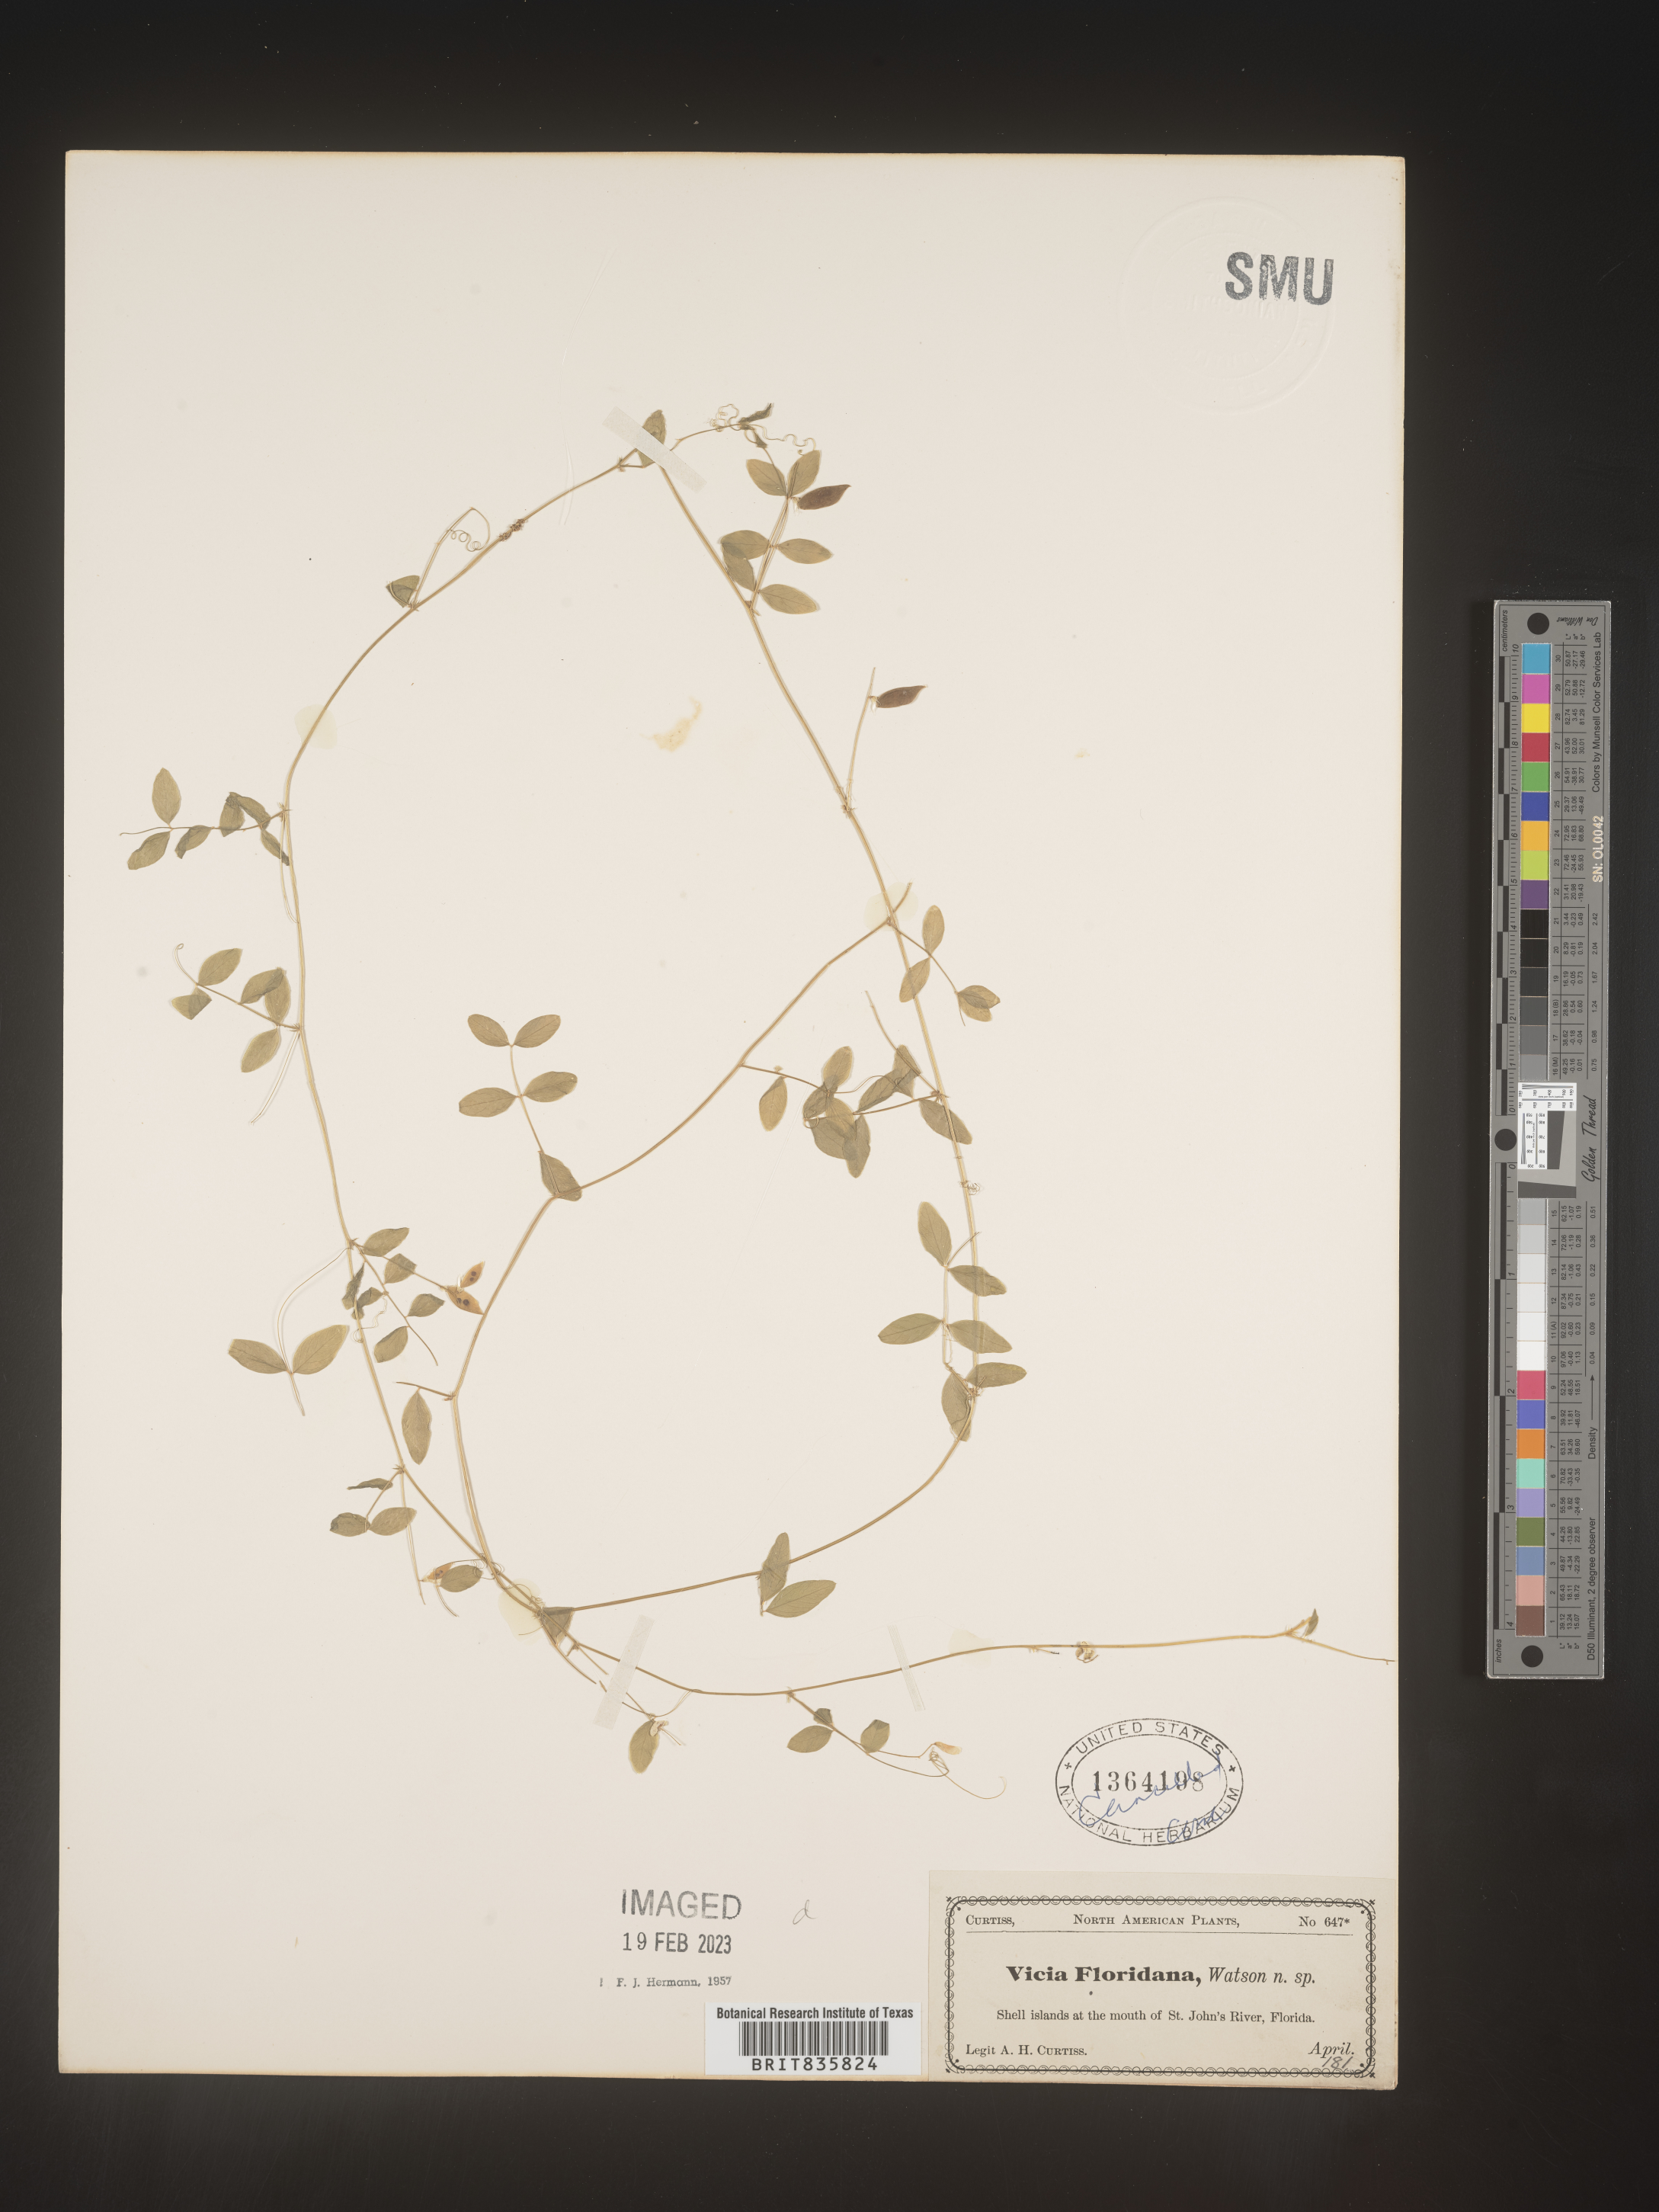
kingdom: Plantae
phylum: Tracheophyta
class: Magnoliopsida
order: Fabales
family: Fabaceae
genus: Vicia
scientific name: Vicia
